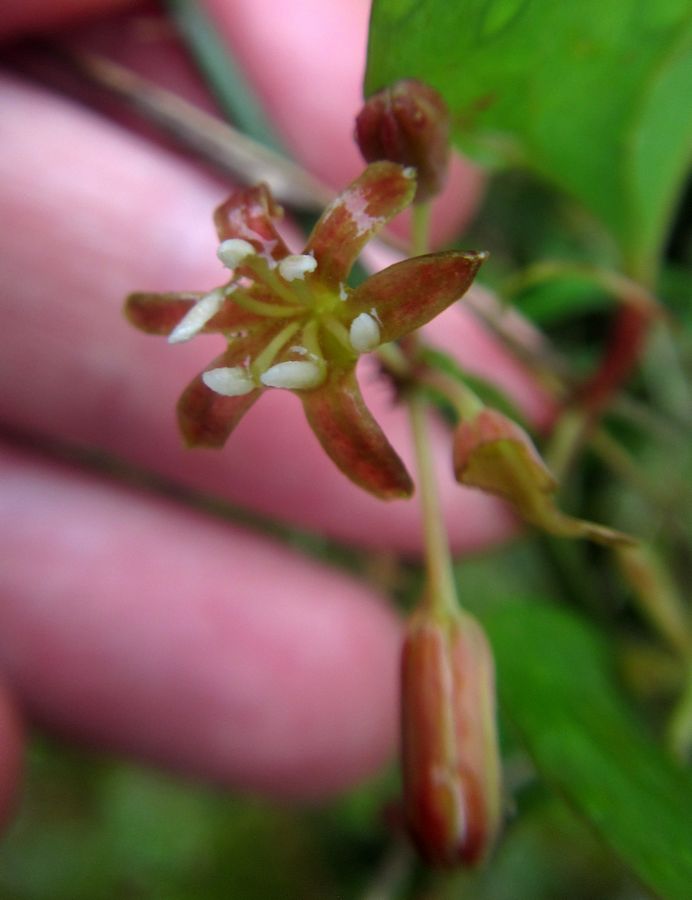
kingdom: Plantae
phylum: Tracheophyta
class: Liliopsida
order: Liliales
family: Smilacaceae
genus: Smilax
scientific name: Smilax excelsa
